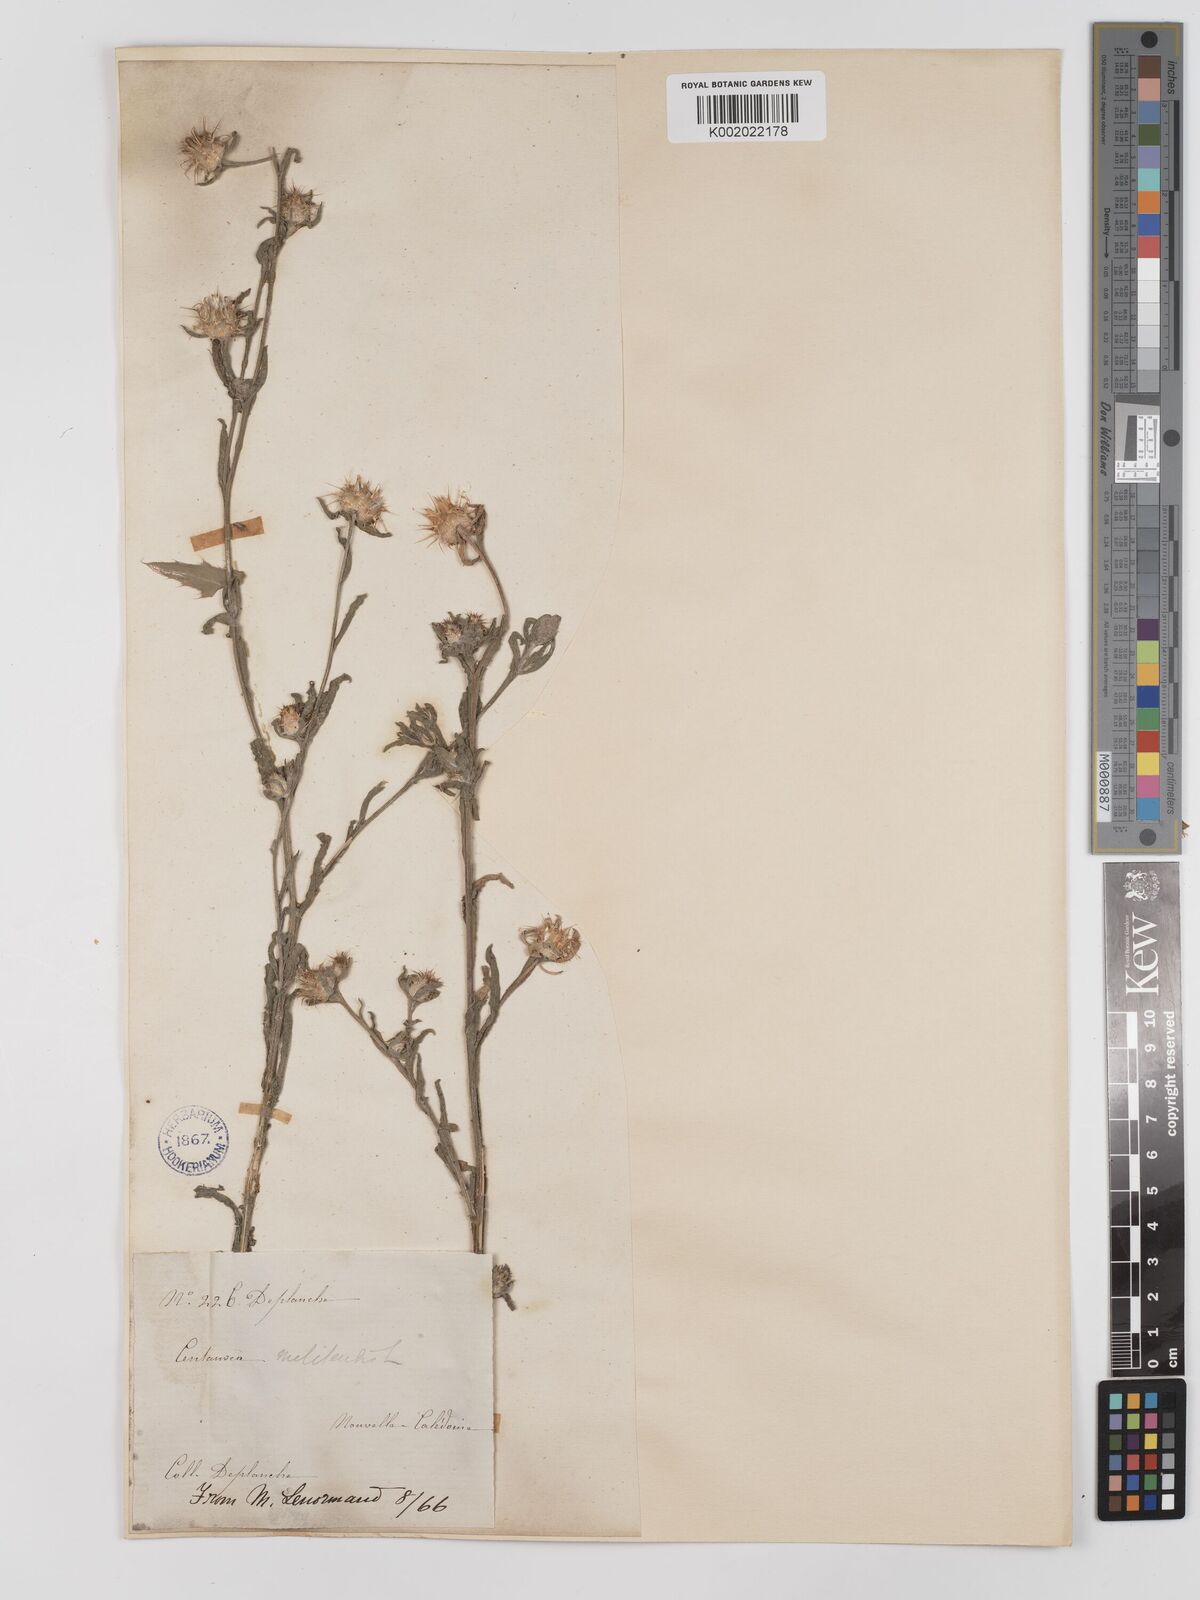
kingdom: Plantae
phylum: Tracheophyta
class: Magnoliopsida
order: Asterales
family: Asteraceae
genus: Centaurea
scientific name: Centaurea melitensis
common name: Maltese star-thistle
